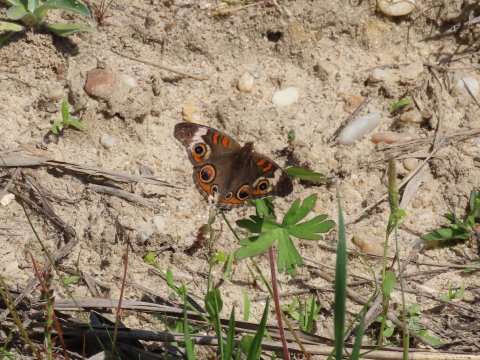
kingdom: Animalia
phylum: Arthropoda
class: Insecta
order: Lepidoptera
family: Nymphalidae
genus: Junonia
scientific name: Junonia coenia
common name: Common Buckeye
